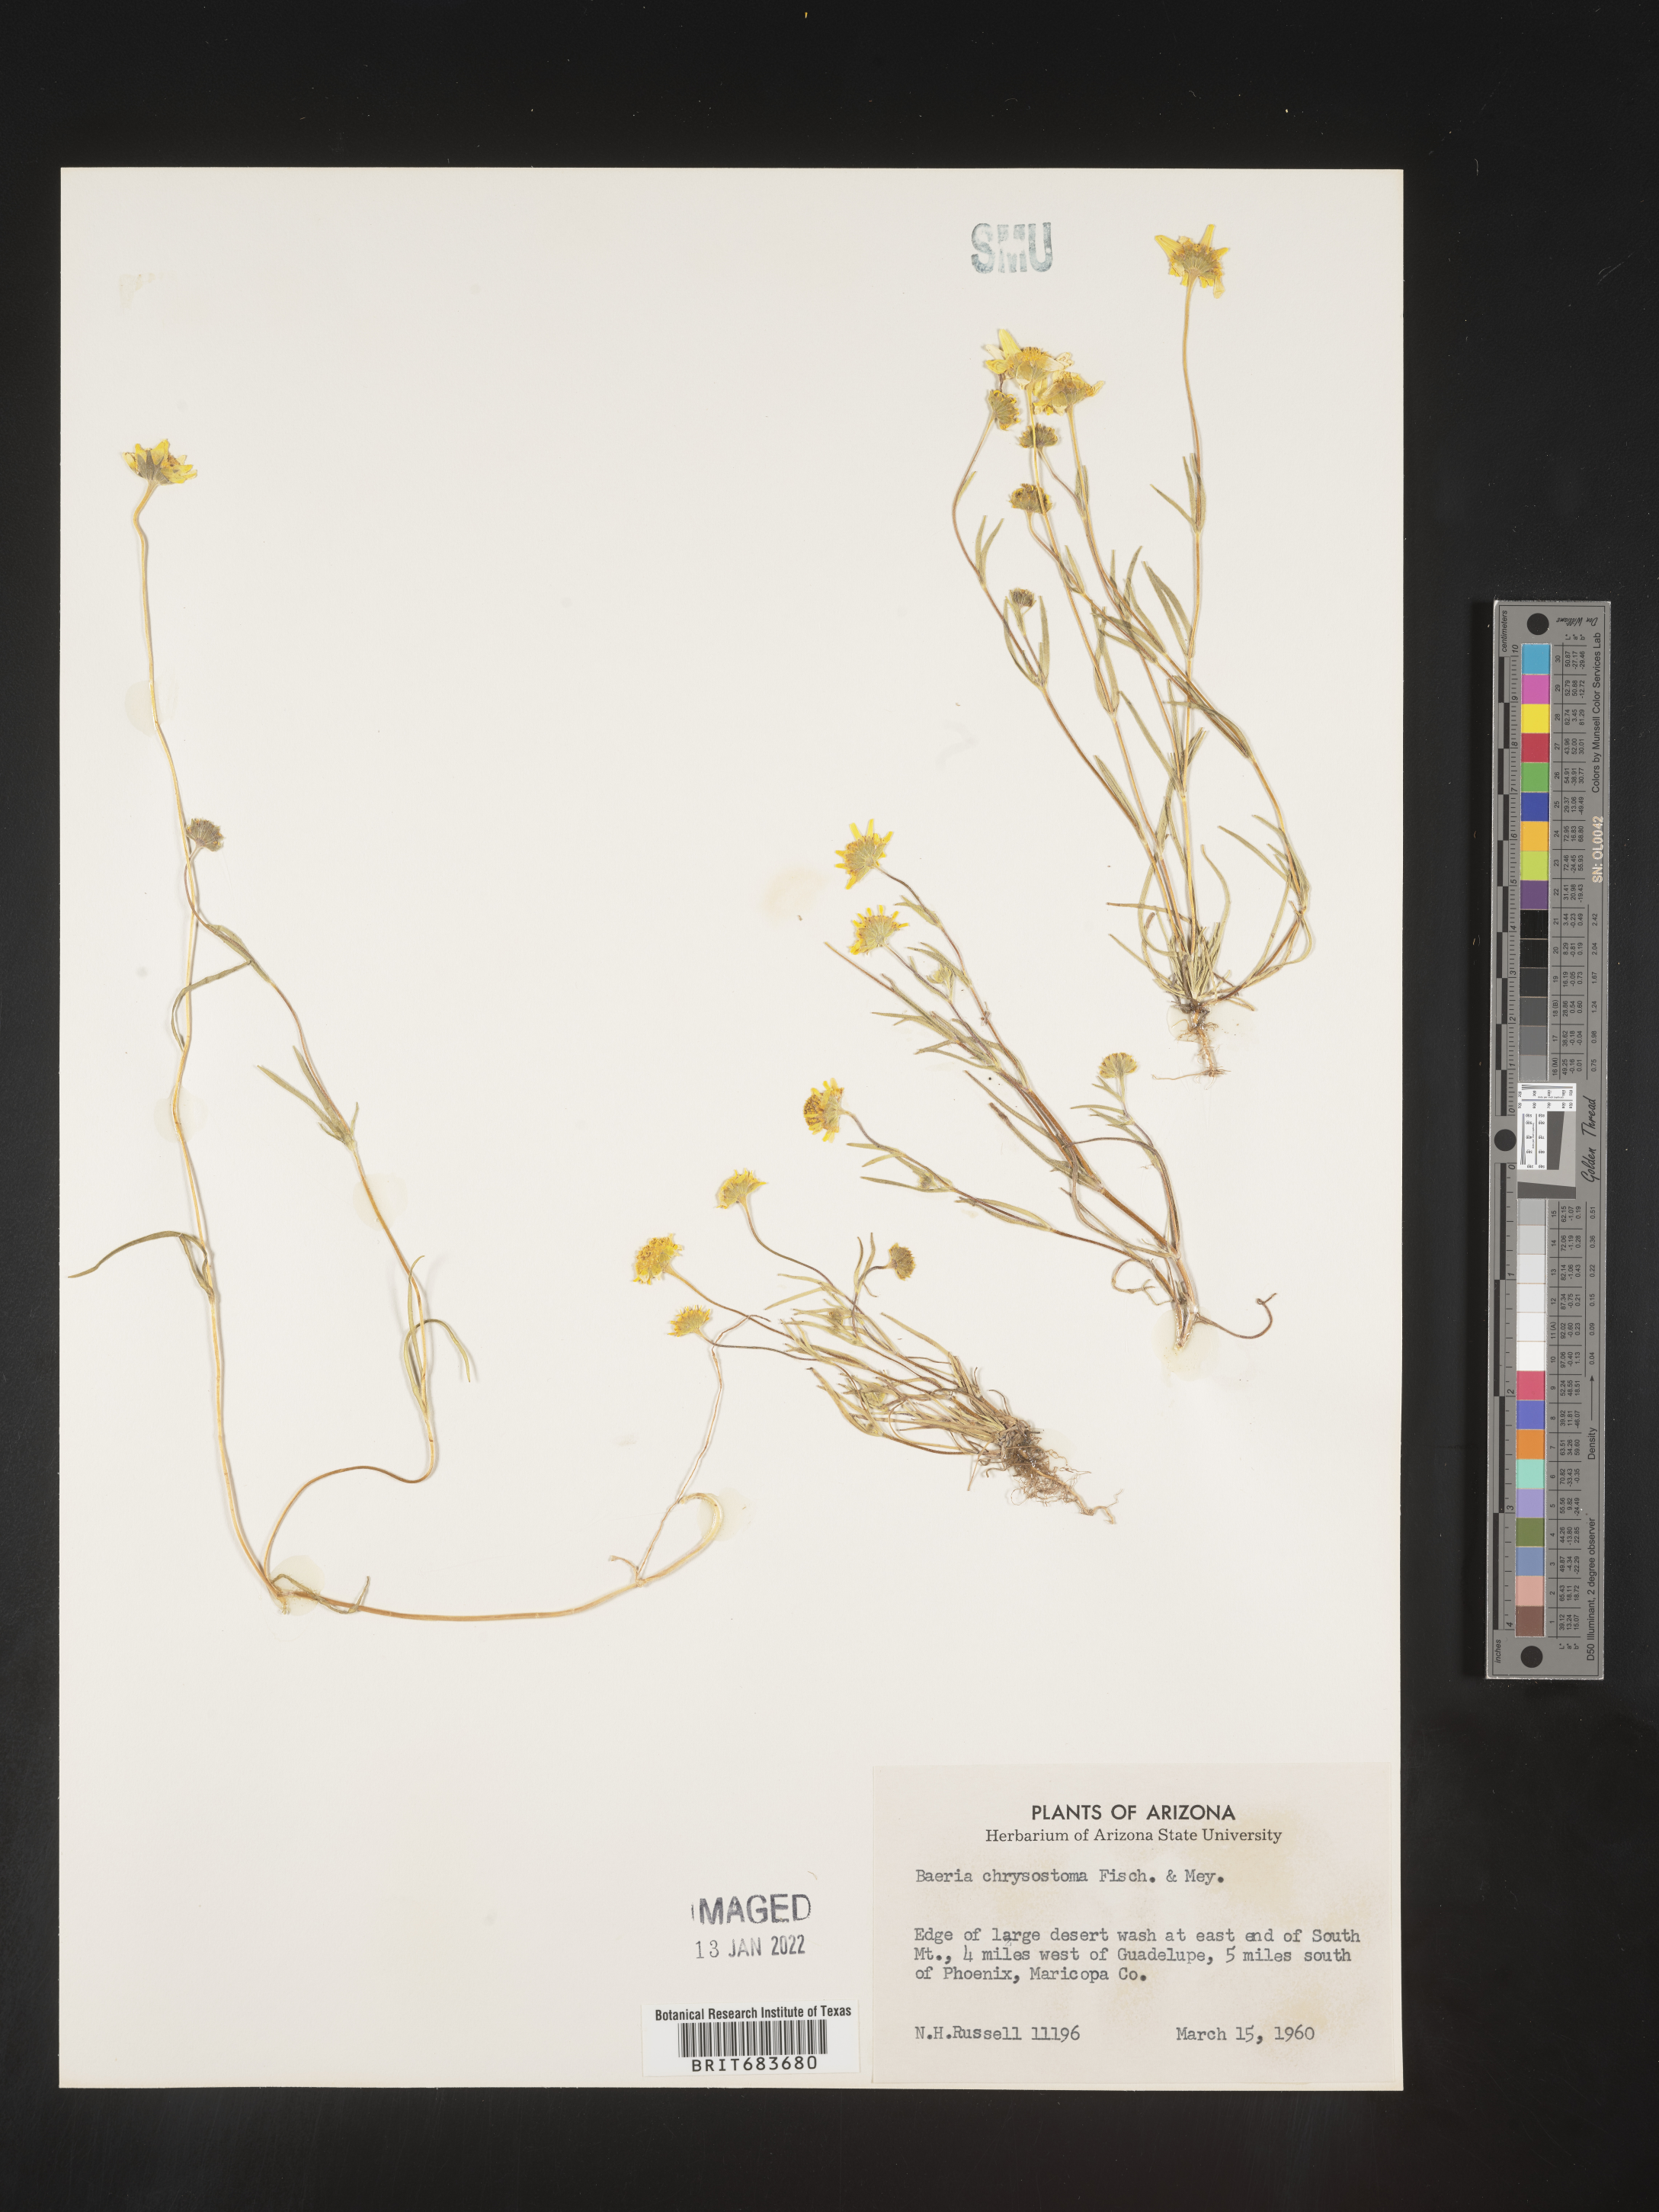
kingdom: Plantae
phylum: Tracheophyta
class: Magnoliopsida
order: Asterales
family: Asteraceae
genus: Lasthenia
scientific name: Lasthenia
